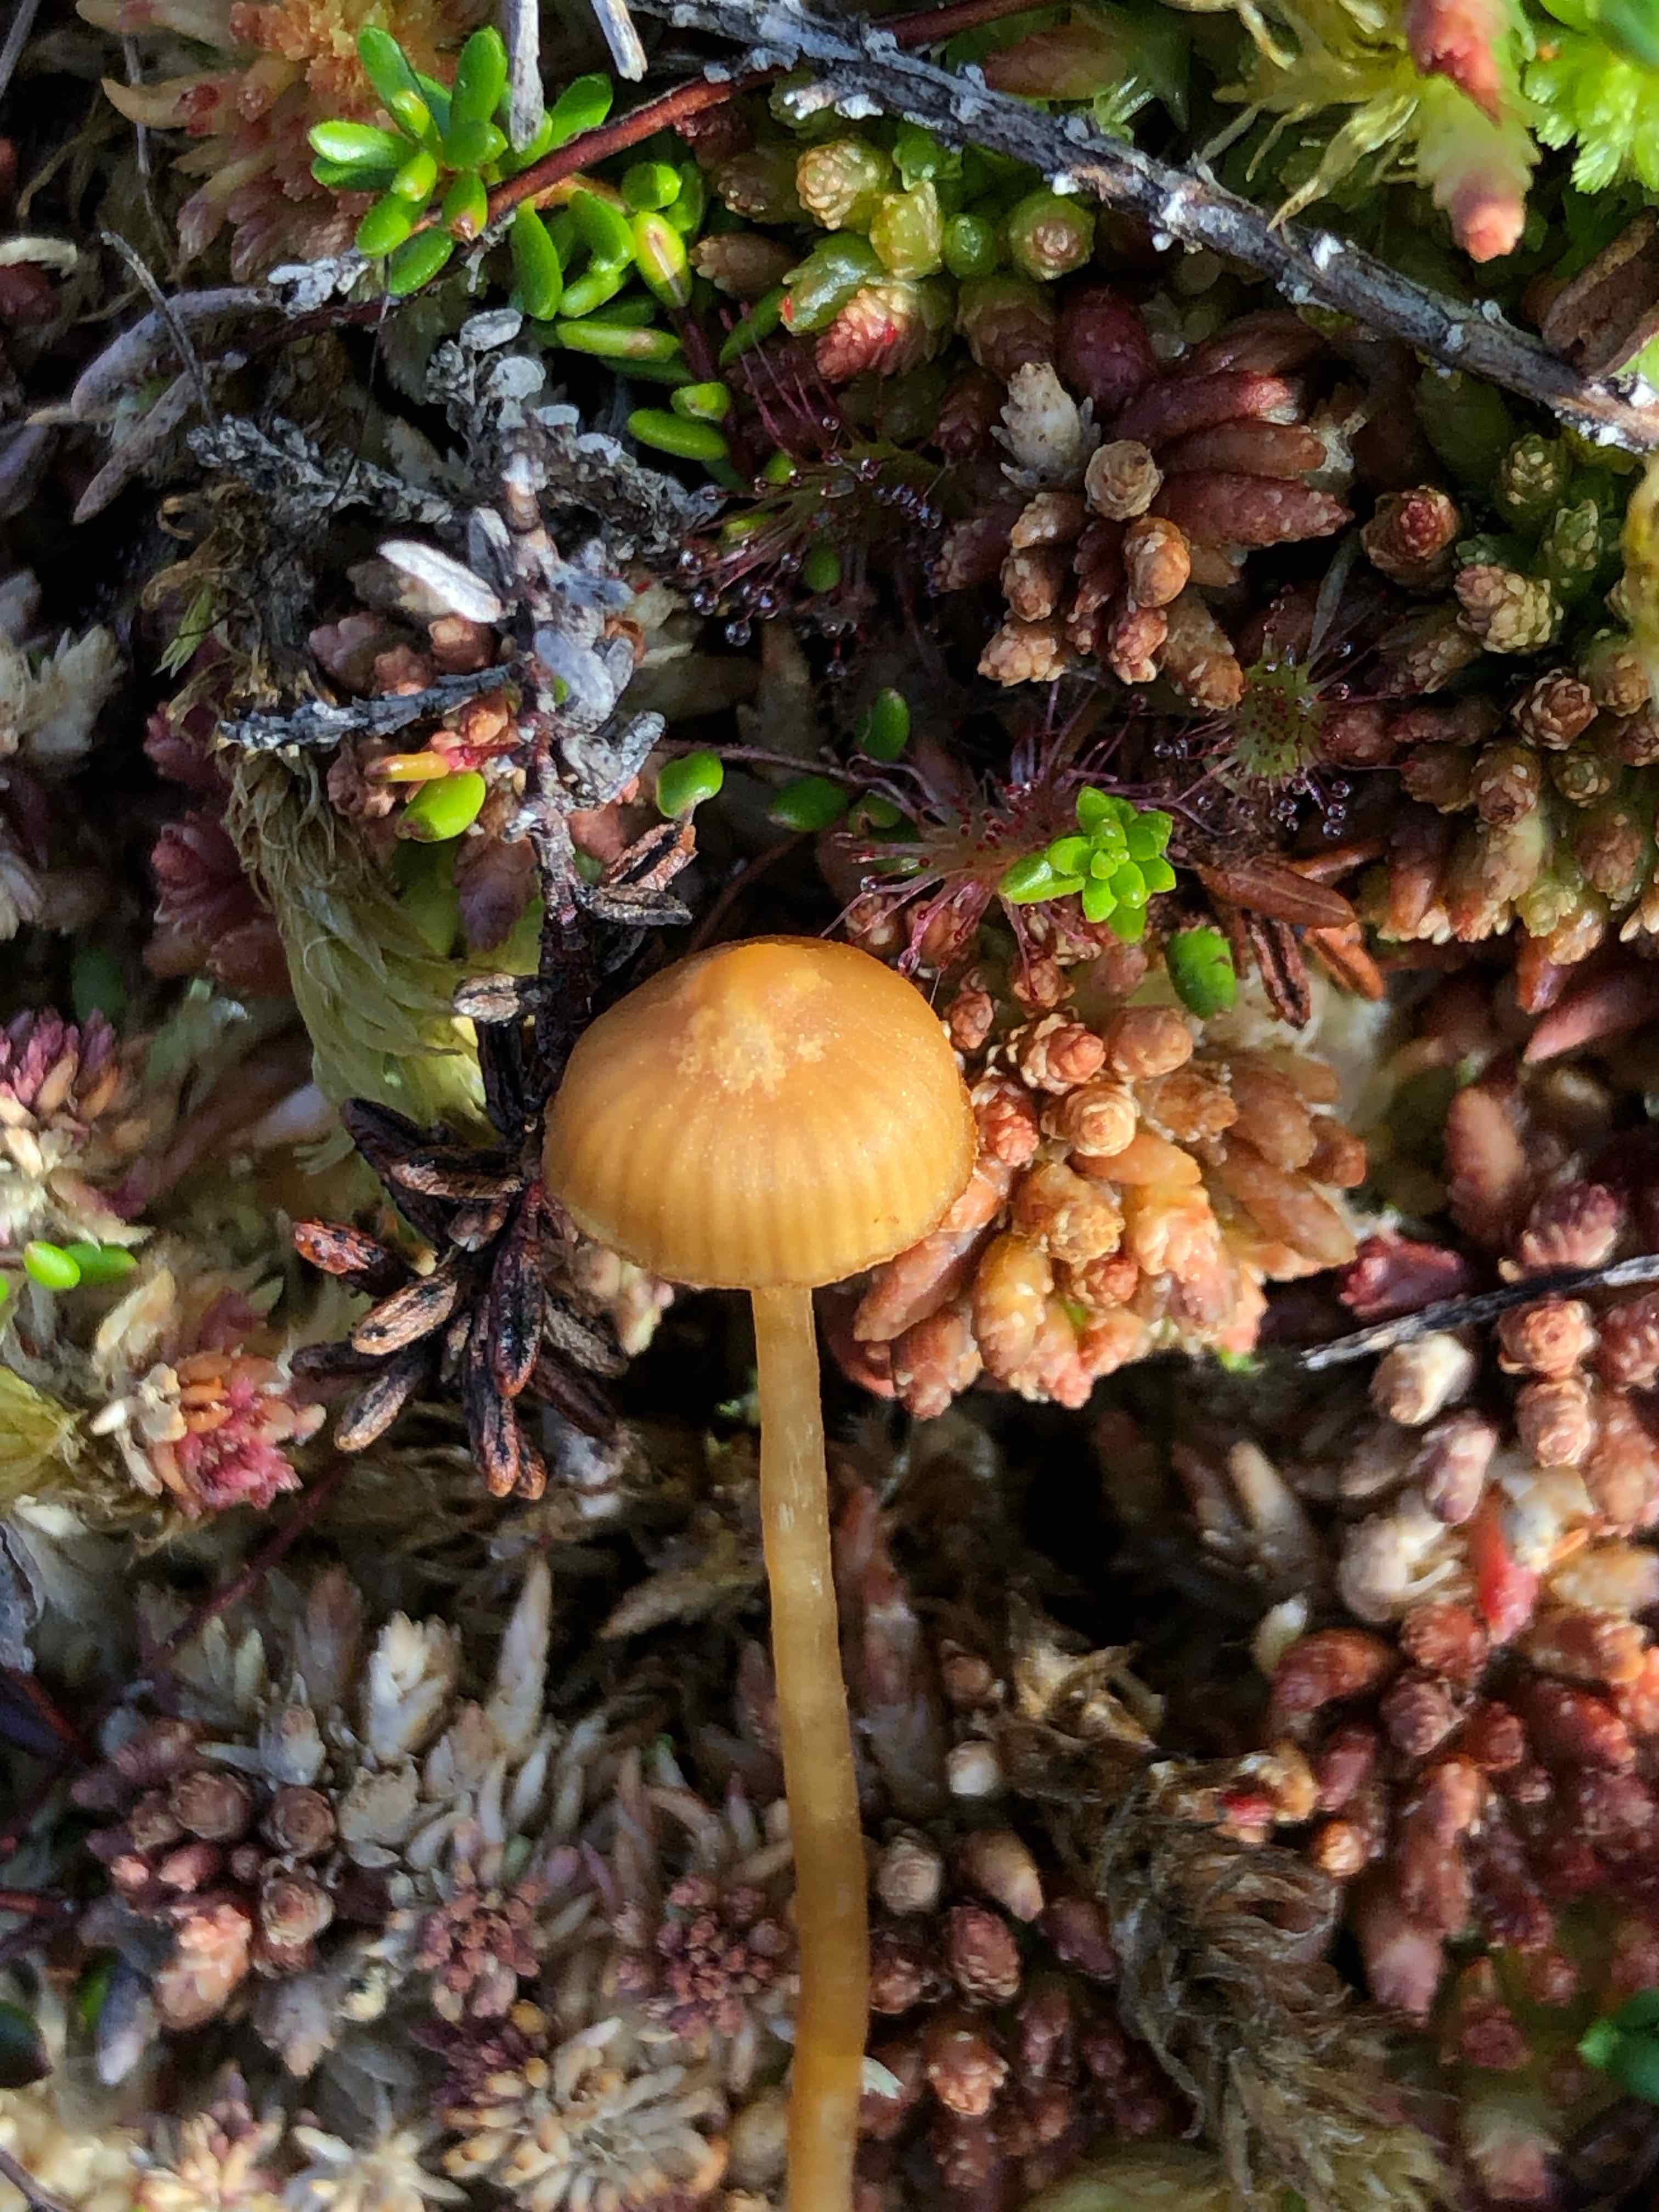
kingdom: Fungi
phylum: Basidiomycota
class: Agaricomycetes
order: Agaricales
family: Hymenogastraceae
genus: Galerina
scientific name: Galerina
